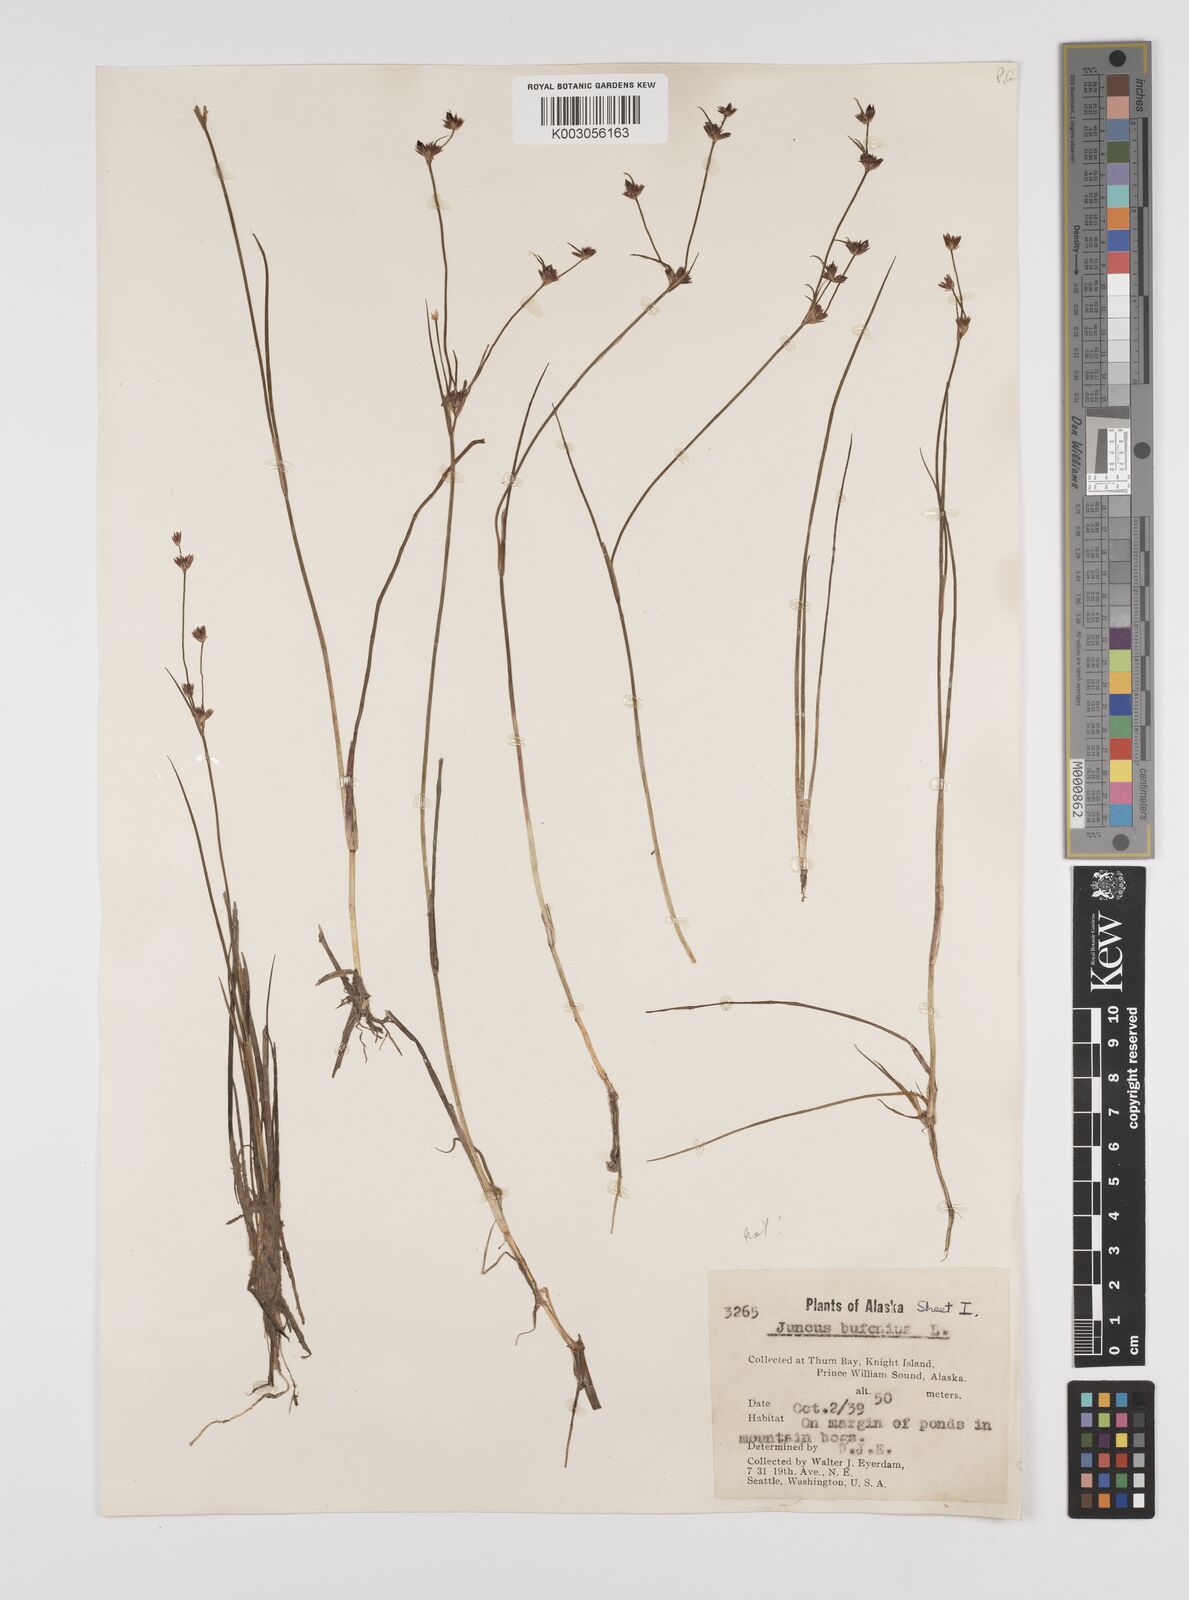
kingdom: Plantae
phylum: Tracheophyta
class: Liliopsida
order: Poales
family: Juncaceae
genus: Juncus
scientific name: Juncus bufonius
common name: Toad rush
